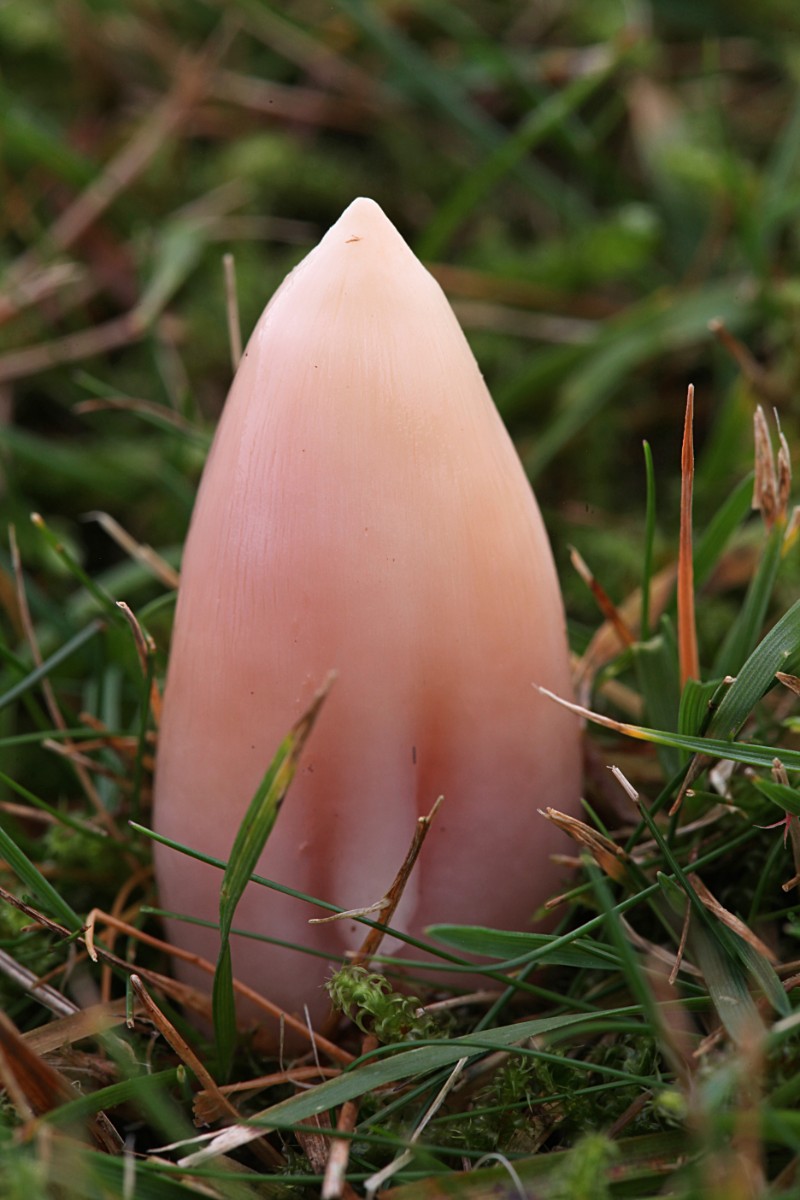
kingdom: Fungi
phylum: Basidiomycota
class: Agaricomycetes
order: Agaricales
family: Hygrophoraceae
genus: Porpolomopsis
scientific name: Porpolomopsis calyptriformis
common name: rosenrød vokshat
